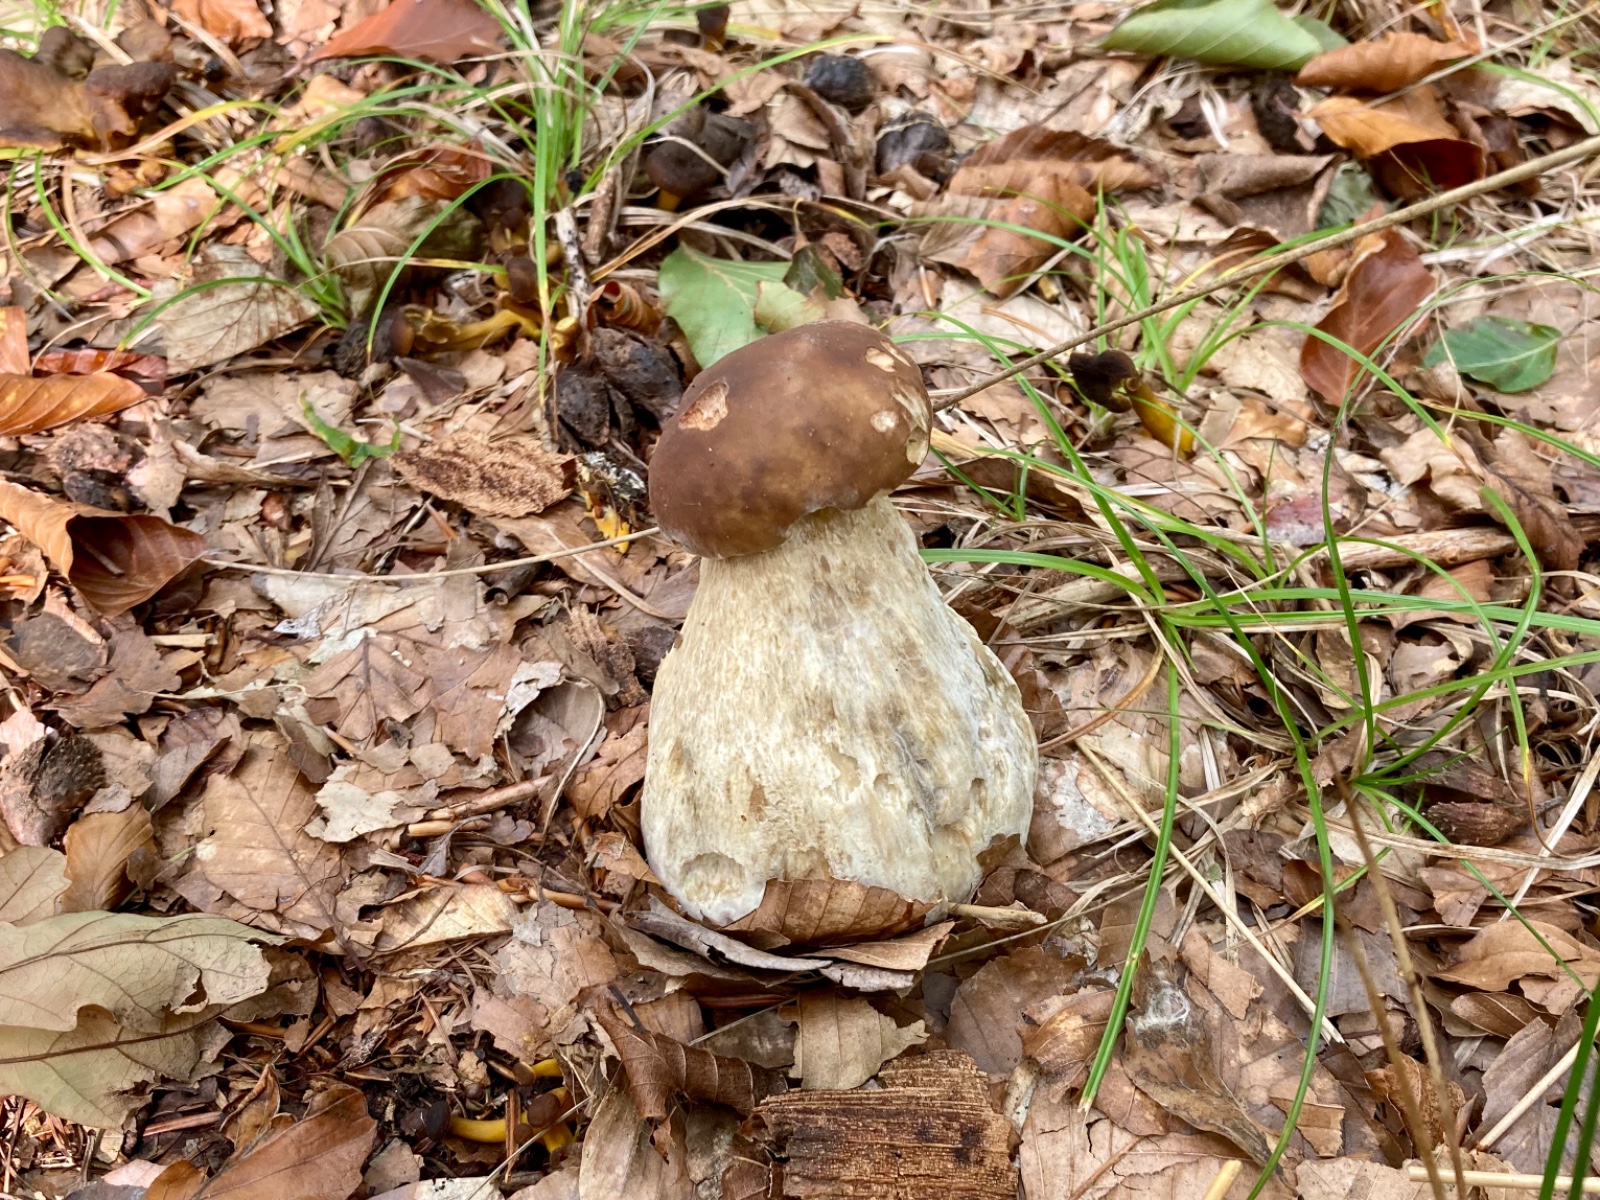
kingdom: Fungi
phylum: Ascomycota
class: Sordariomycetes
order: Hypocreales
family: Hypocreaceae
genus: Hypomyces
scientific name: Hypomyces chrysospermus
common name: gulskimmel-snylteskorpe
